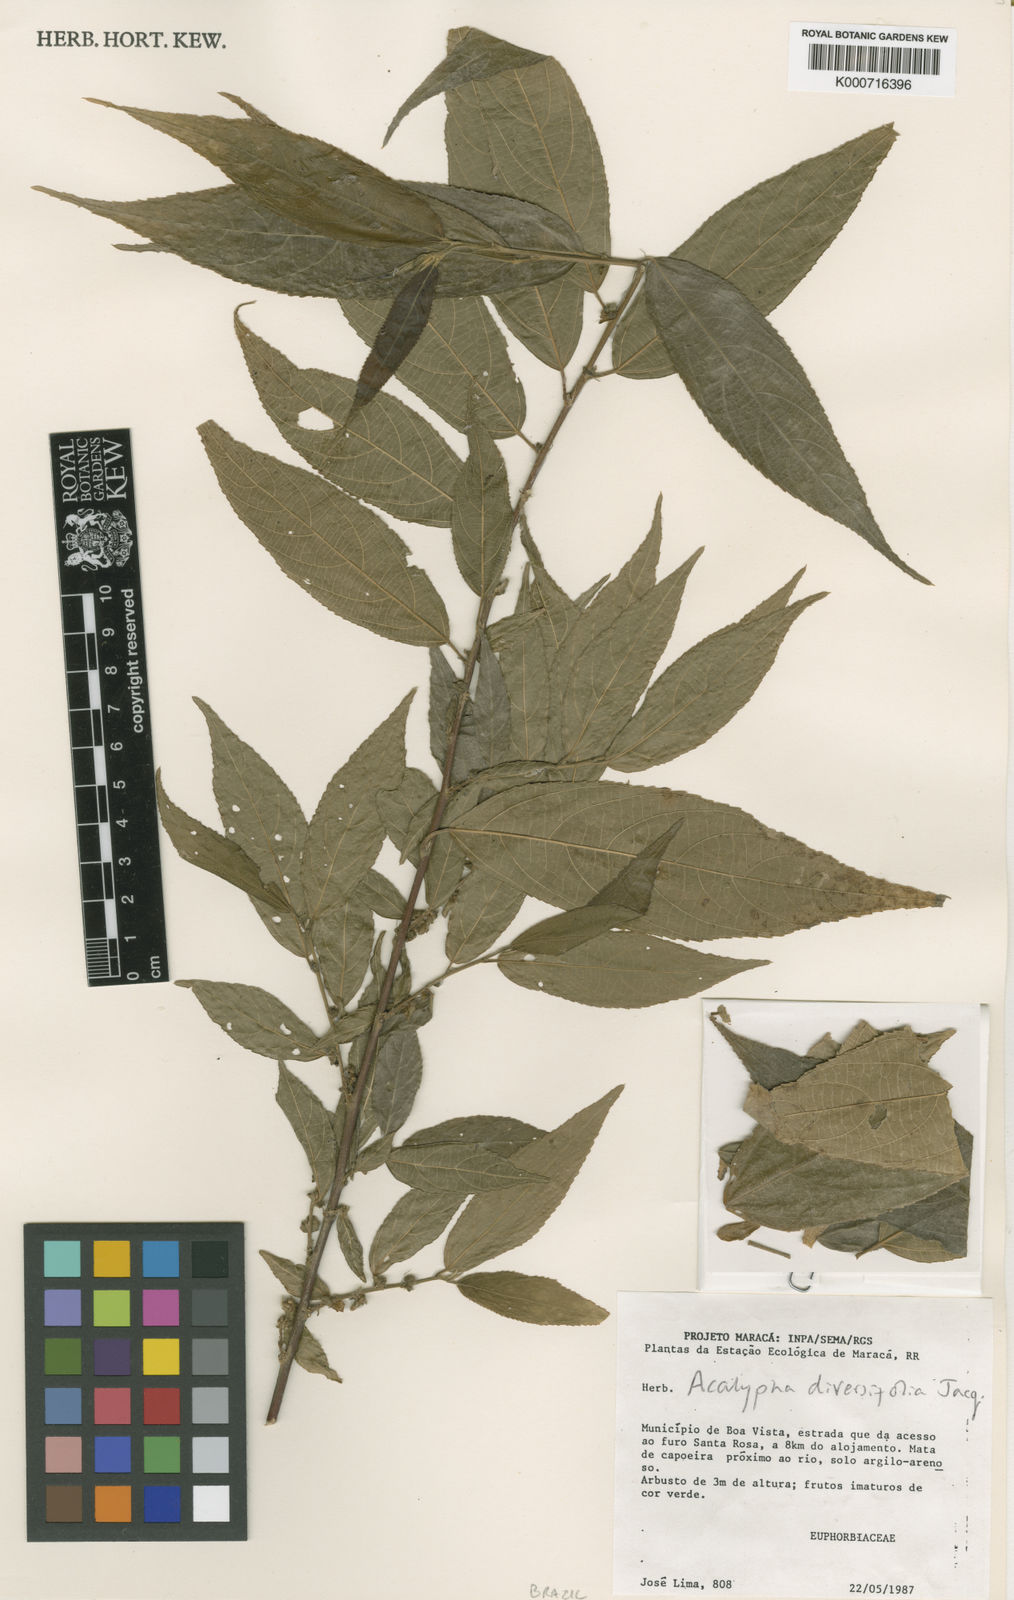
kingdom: Plantae
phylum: Tracheophyta
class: Magnoliopsida
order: Malpighiales
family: Euphorbiaceae
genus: Acalypha
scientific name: Acalypha diversifolia
